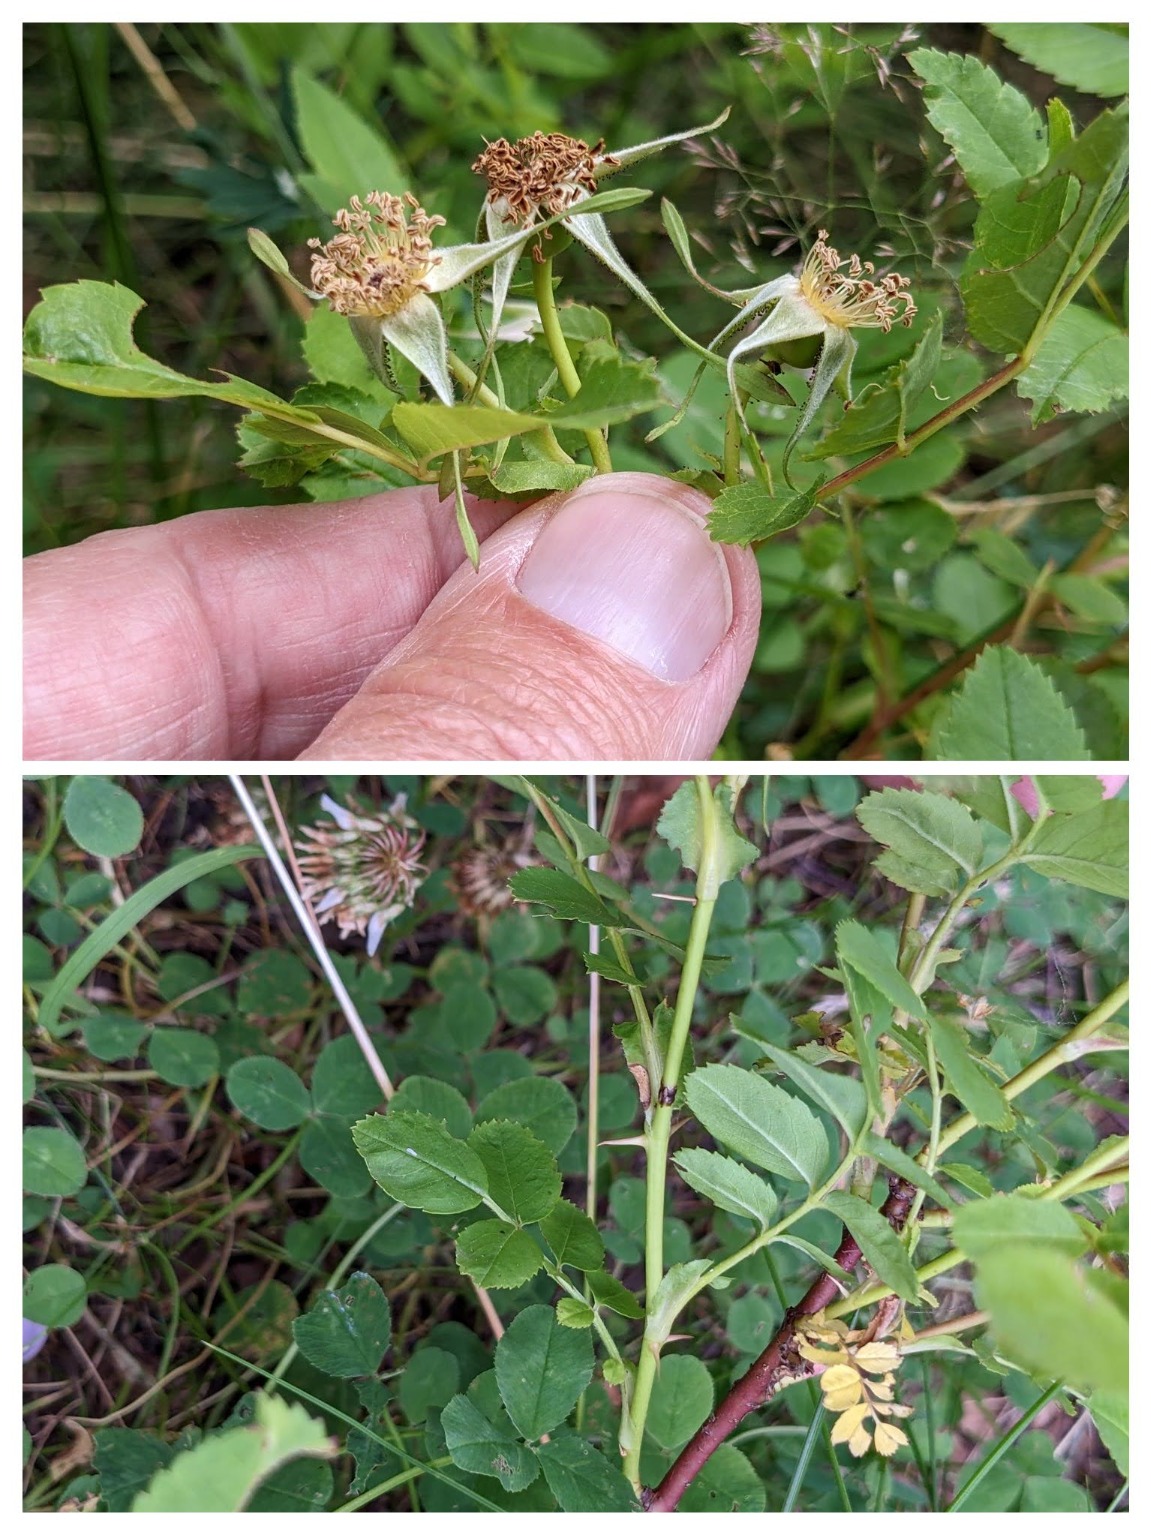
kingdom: Plantae
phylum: Tracheophyta
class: Magnoliopsida
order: Rosales
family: Rosaceae
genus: Rosa
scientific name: Rosa carolina
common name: Glansbladet rose
